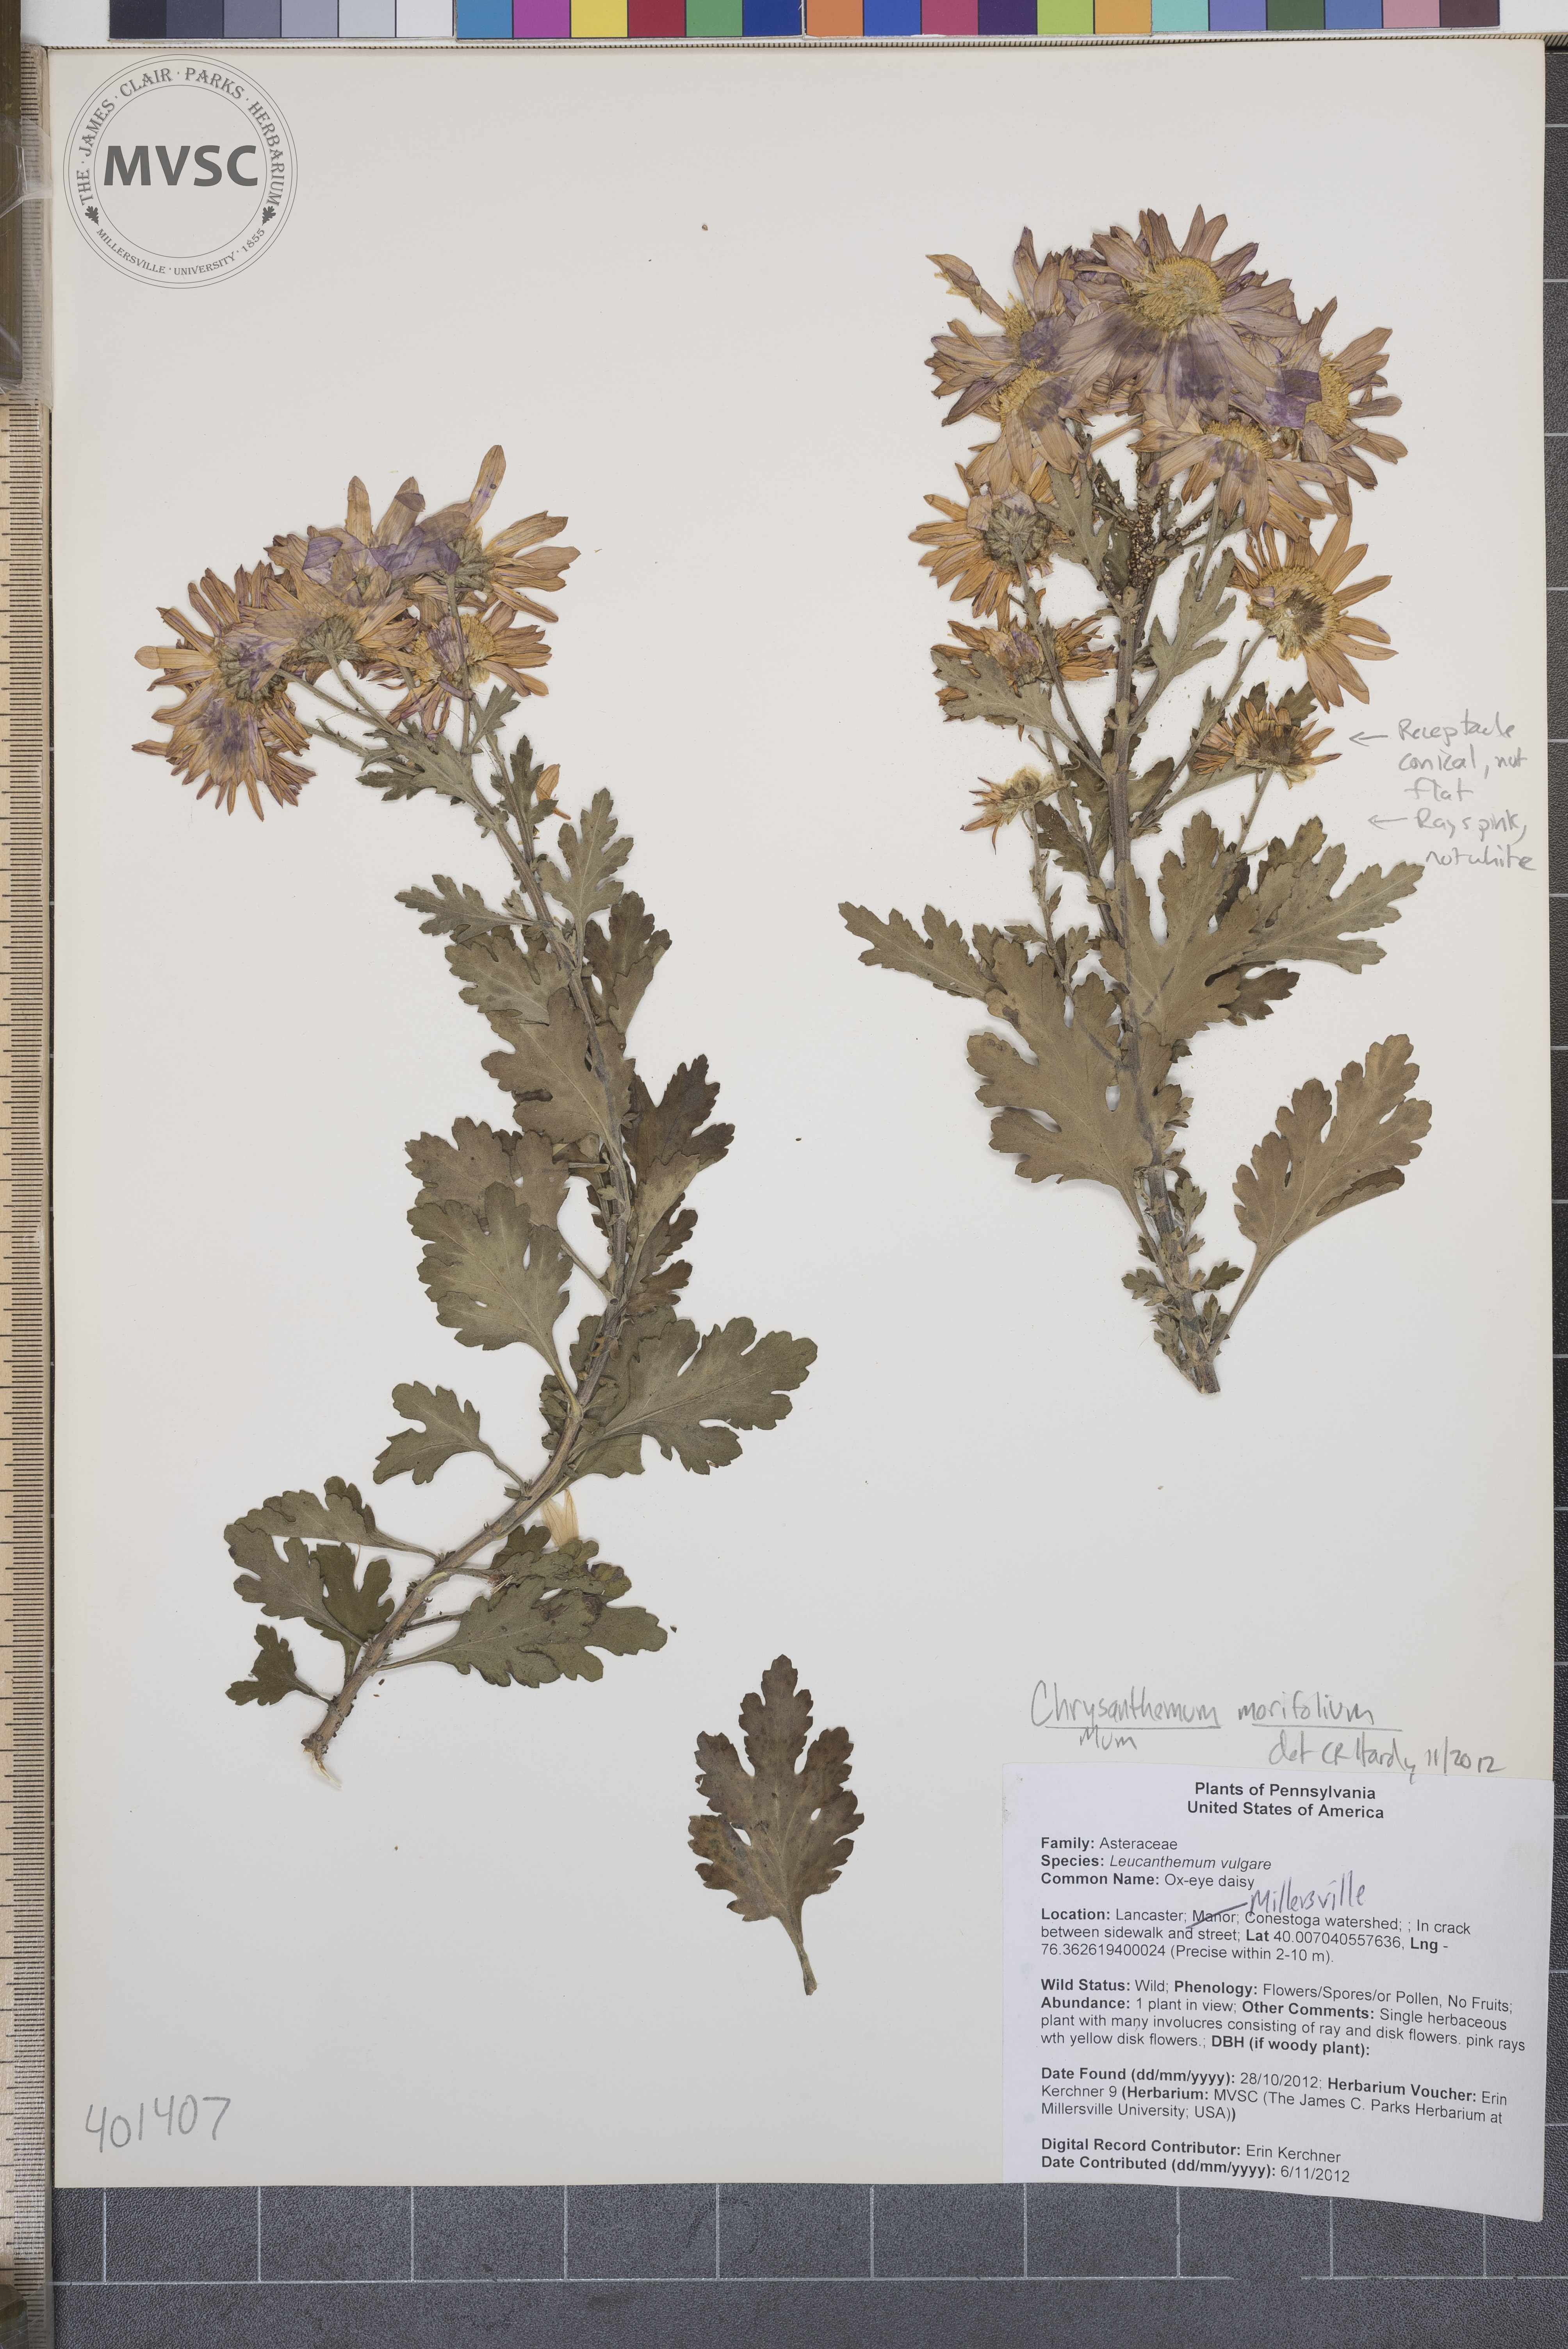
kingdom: Plantae
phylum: Tracheophyta
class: Magnoliopsida
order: Asterales
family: Asteraceae
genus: Chrysanthemum
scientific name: Chrysanthemum morifolium
